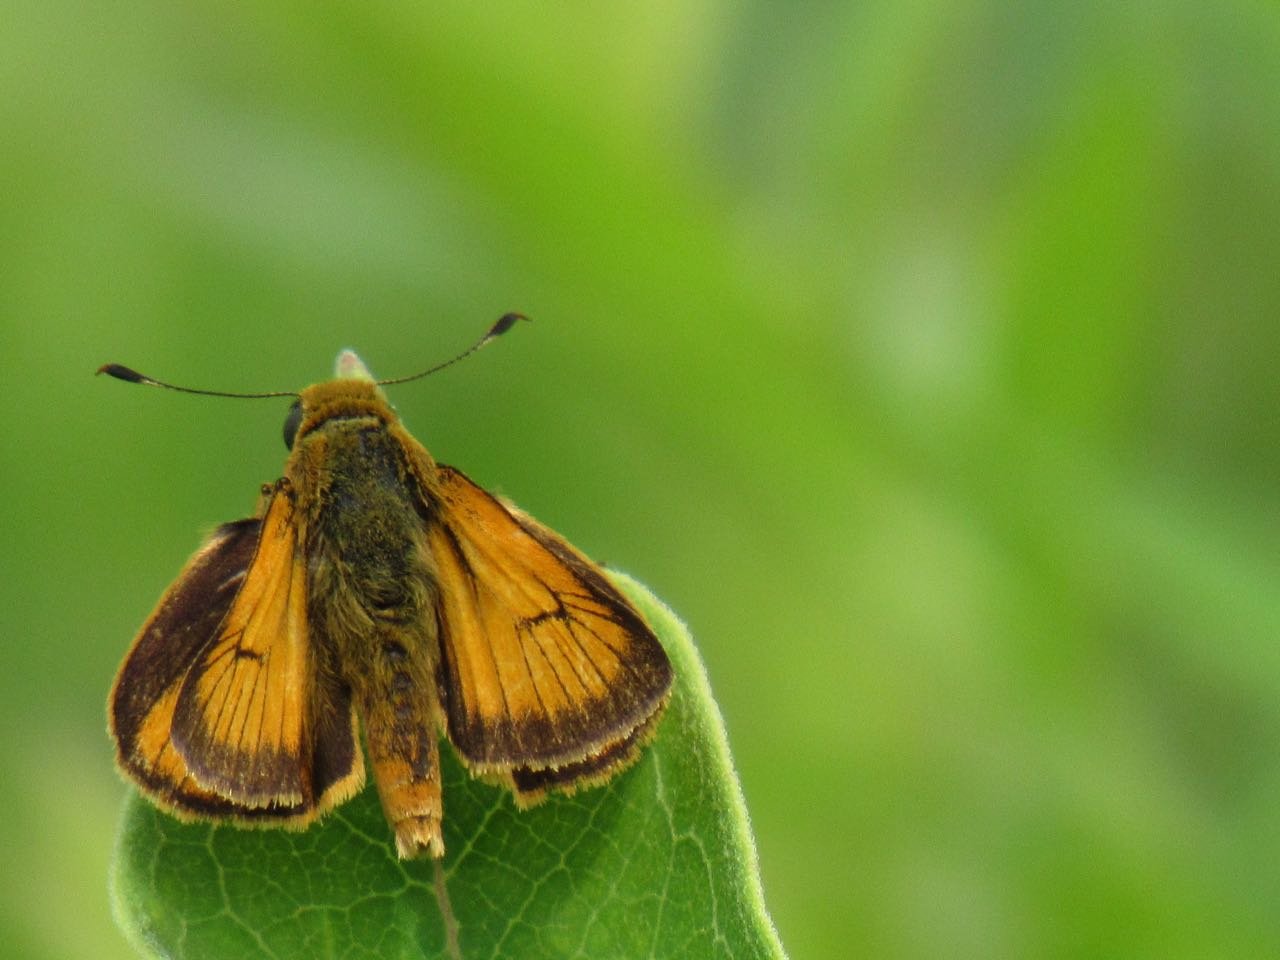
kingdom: Animalia
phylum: Arthropoda
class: Insecta
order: Lepidoptera
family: Hesperiidae
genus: Atrytone
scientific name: Atrytone delaware
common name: Delaware Skipper
